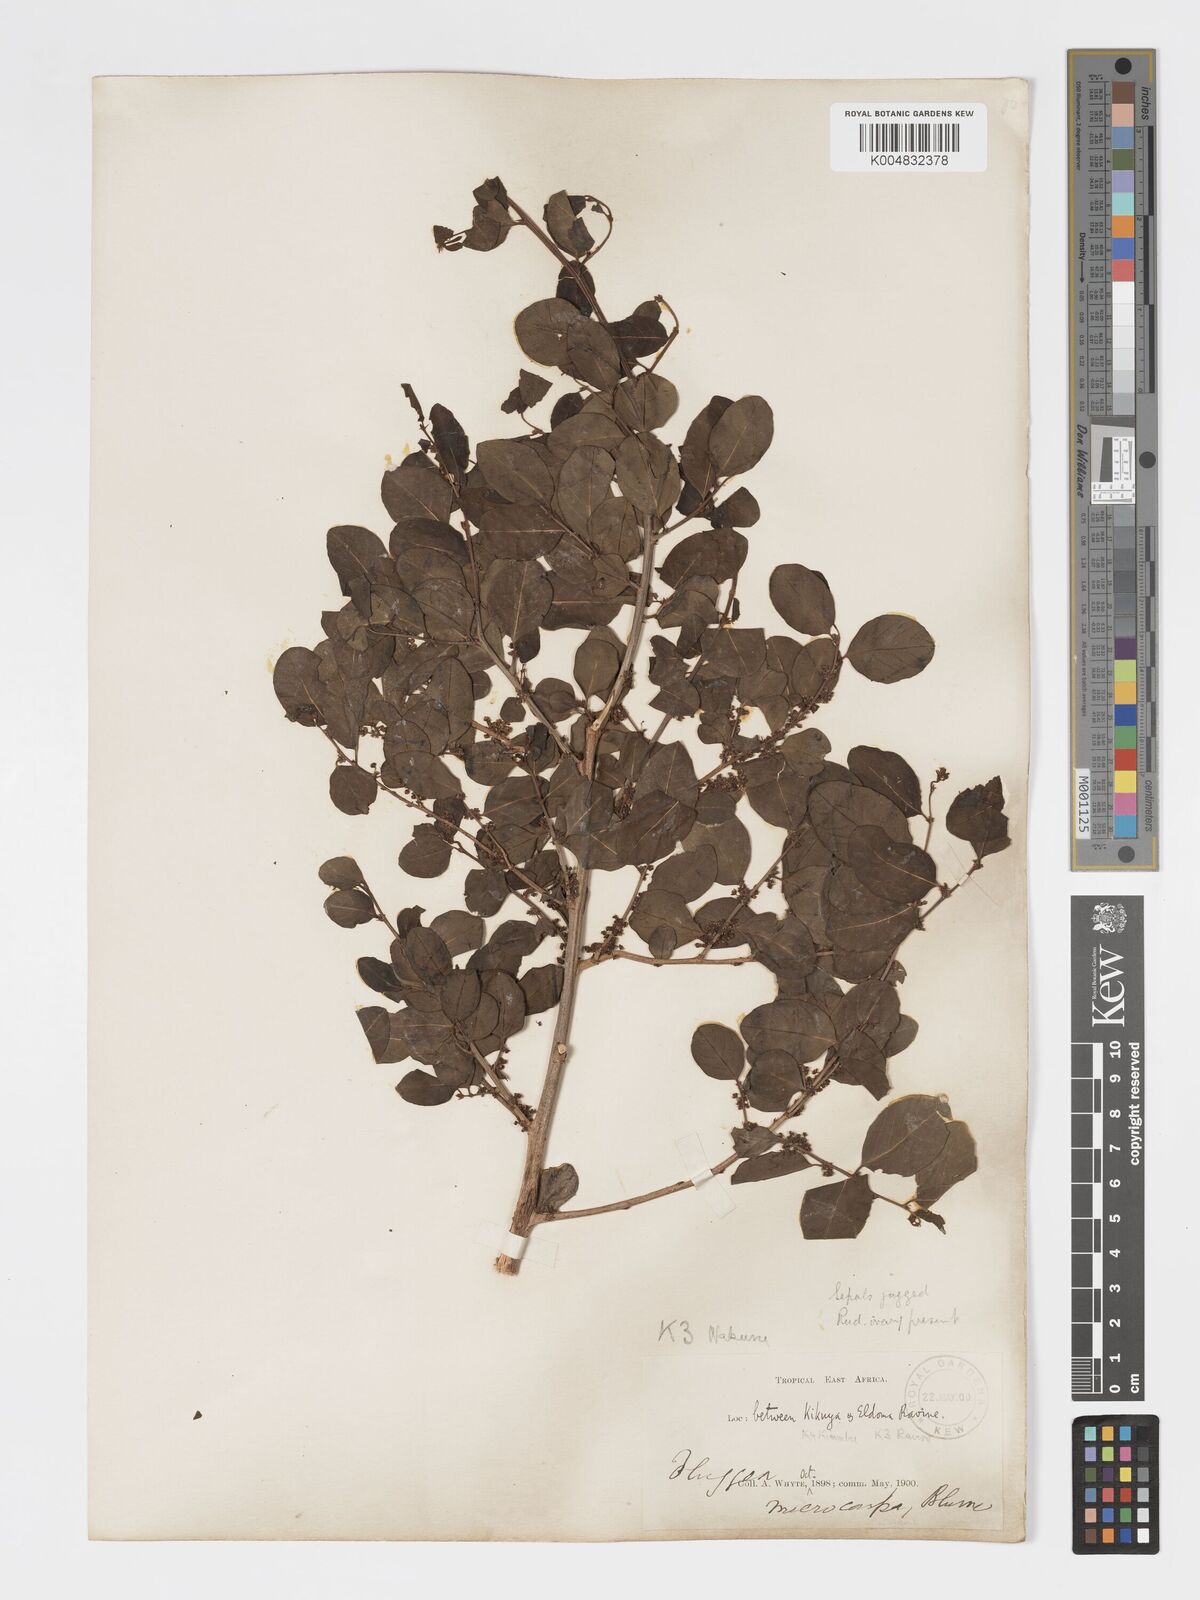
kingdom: Plantae
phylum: Tracheophyta
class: Magnoliopsida
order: Malpighiales
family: Phyllanthaceae
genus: Flueggea
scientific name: Flueggea virosa
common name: Common bushweed
